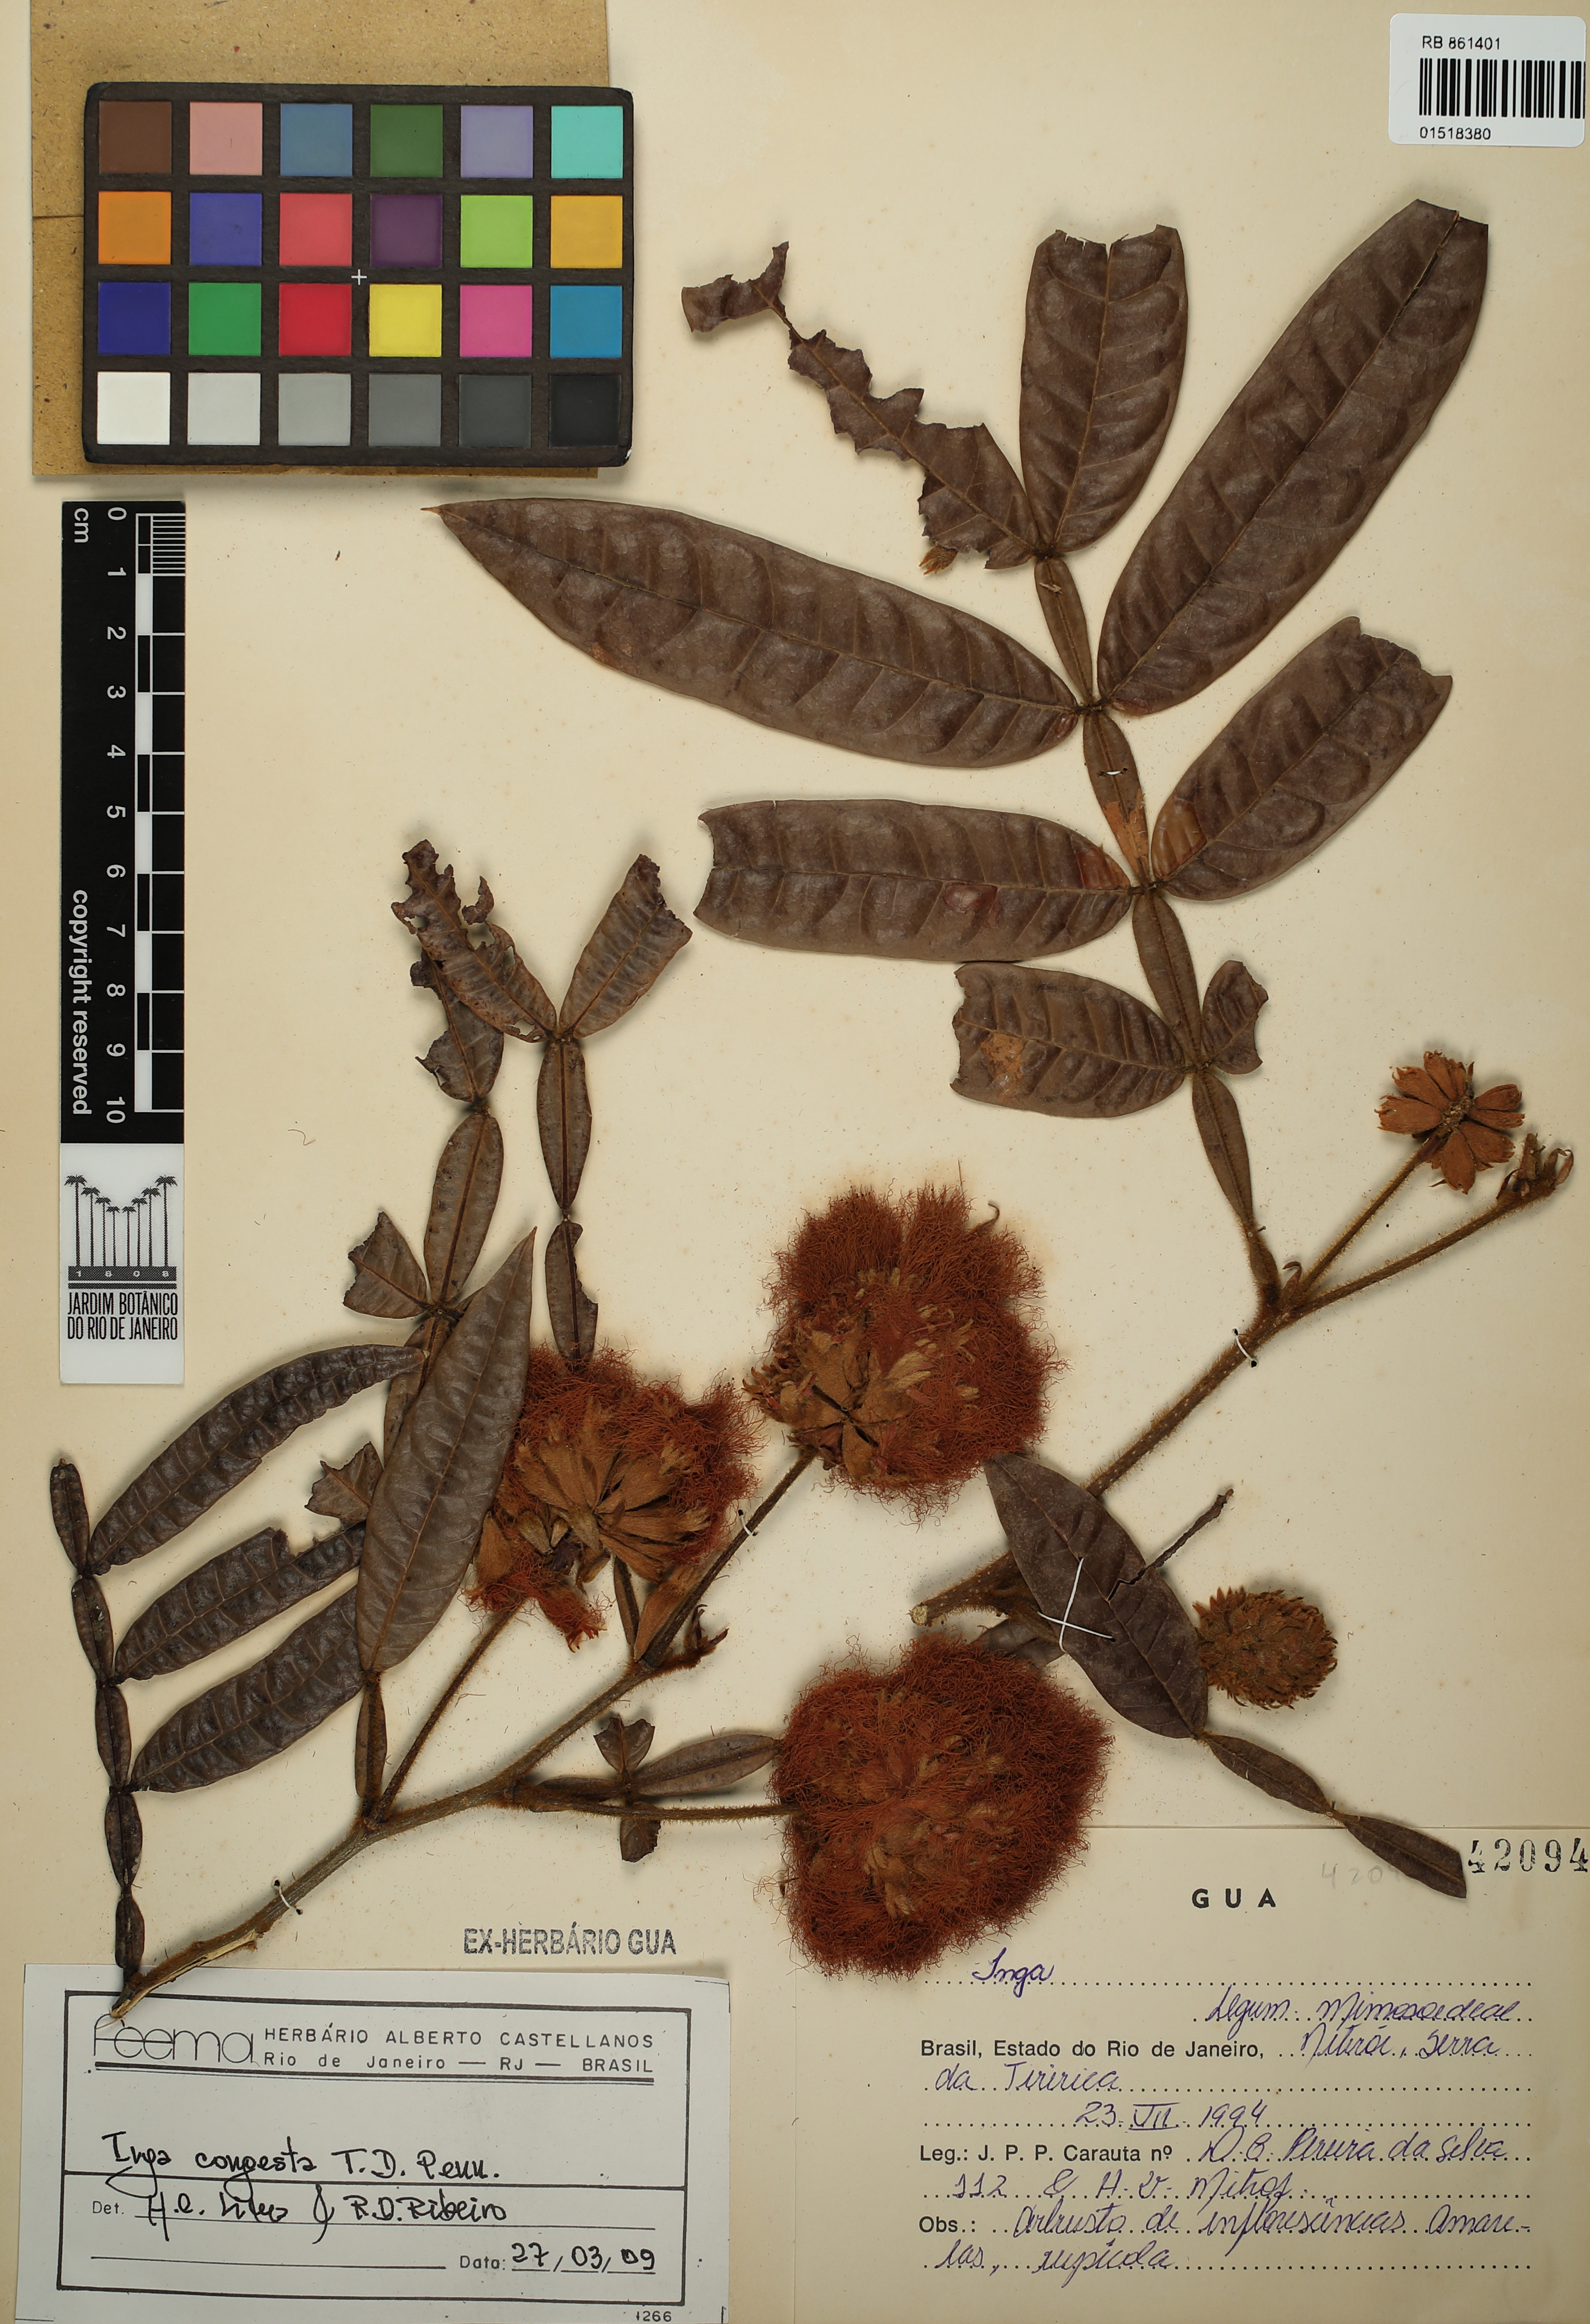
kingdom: Plantae
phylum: Tracheophyta
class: Magnoliopsida
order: Fabales
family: Fabaceae
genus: Inga
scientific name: Inga congesta
